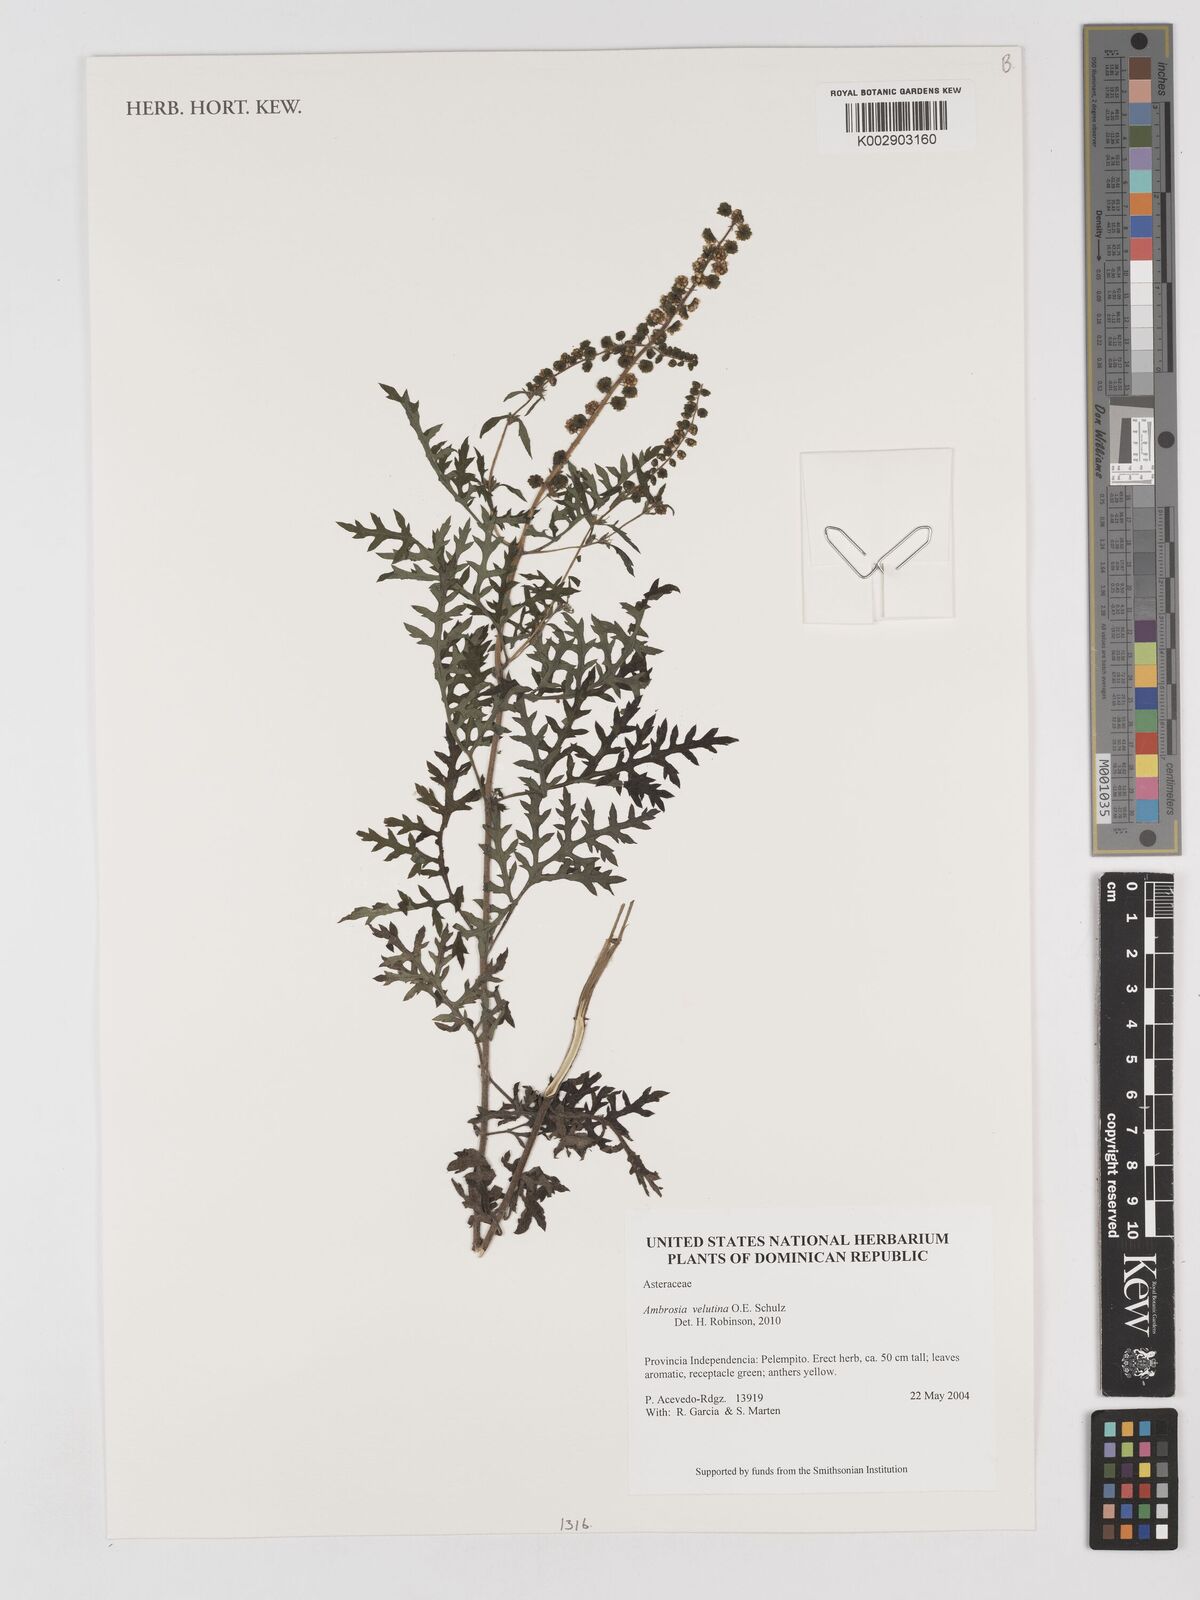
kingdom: Plantae
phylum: Tracheophyta
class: Magnoliopsida
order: Asterales
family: Asteraceae
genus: Ambrosia
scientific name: Ambrosia velutina
